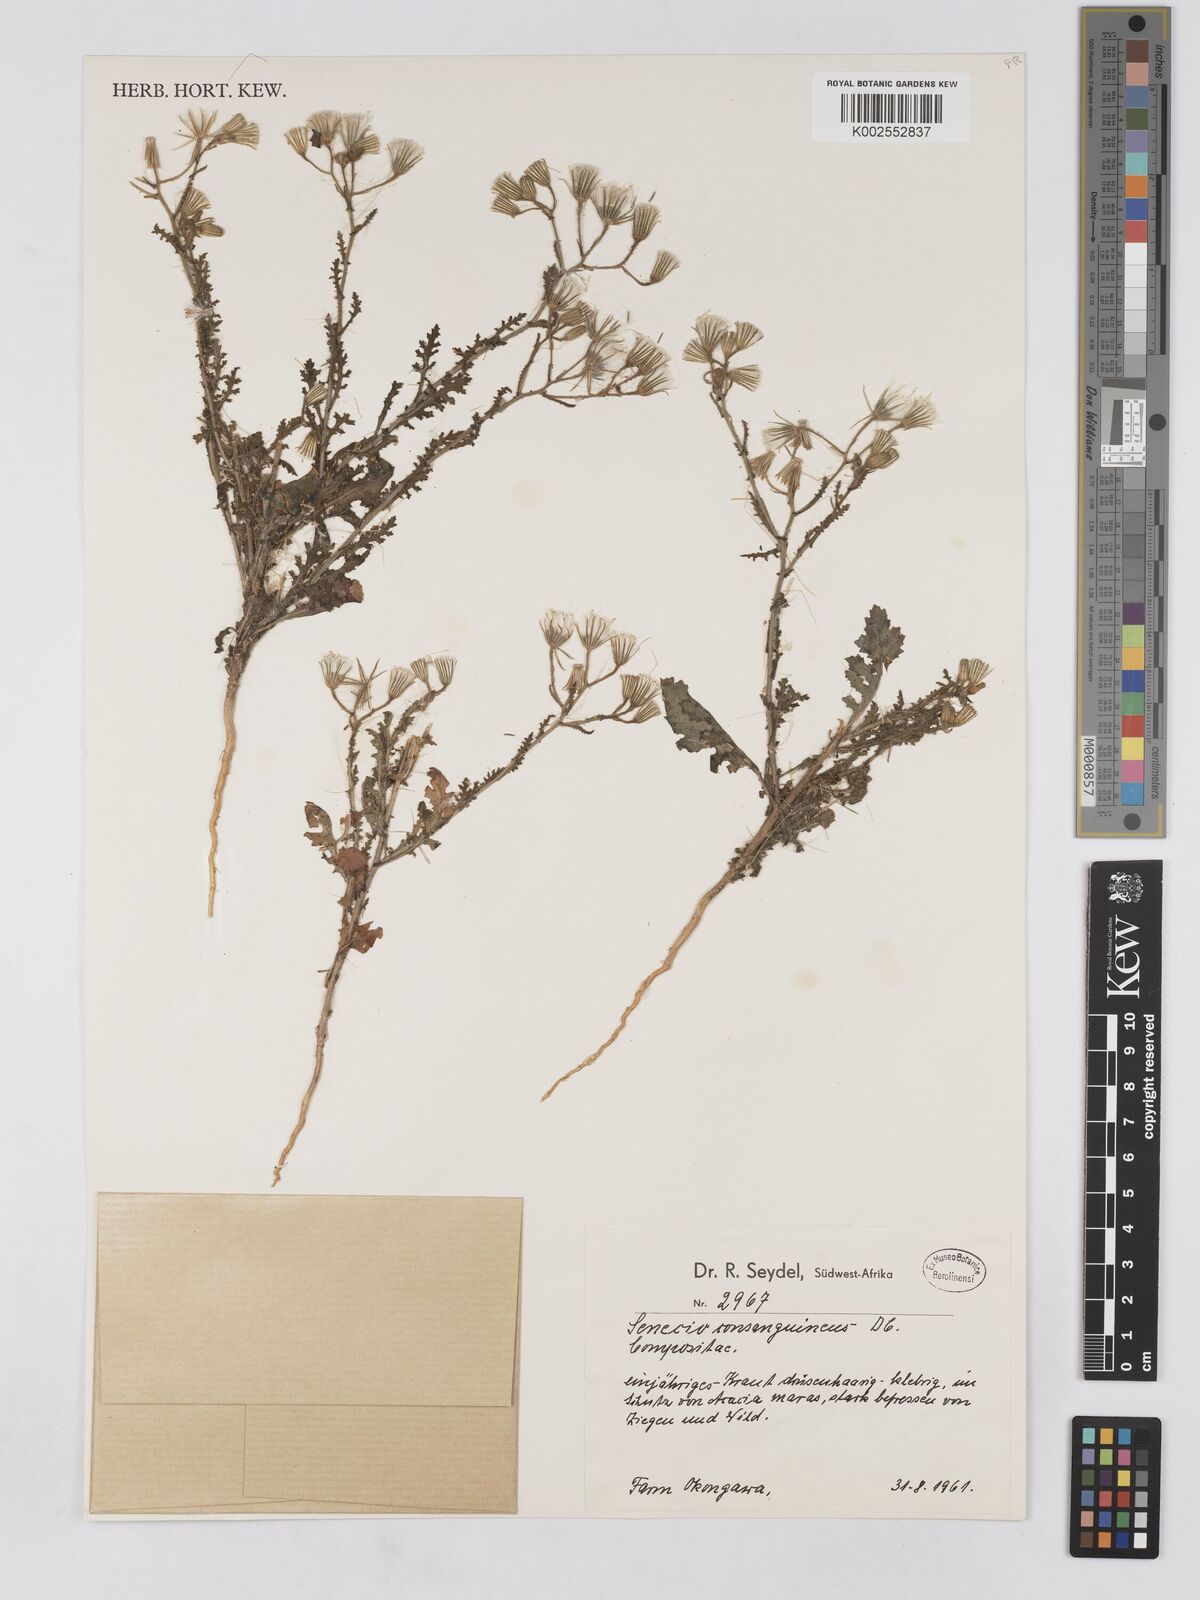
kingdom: Plantae
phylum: Tracheophyta
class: Magnoliopsida
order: Asterales
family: Asteraceae
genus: Senecio
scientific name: Senecio consanguineus
